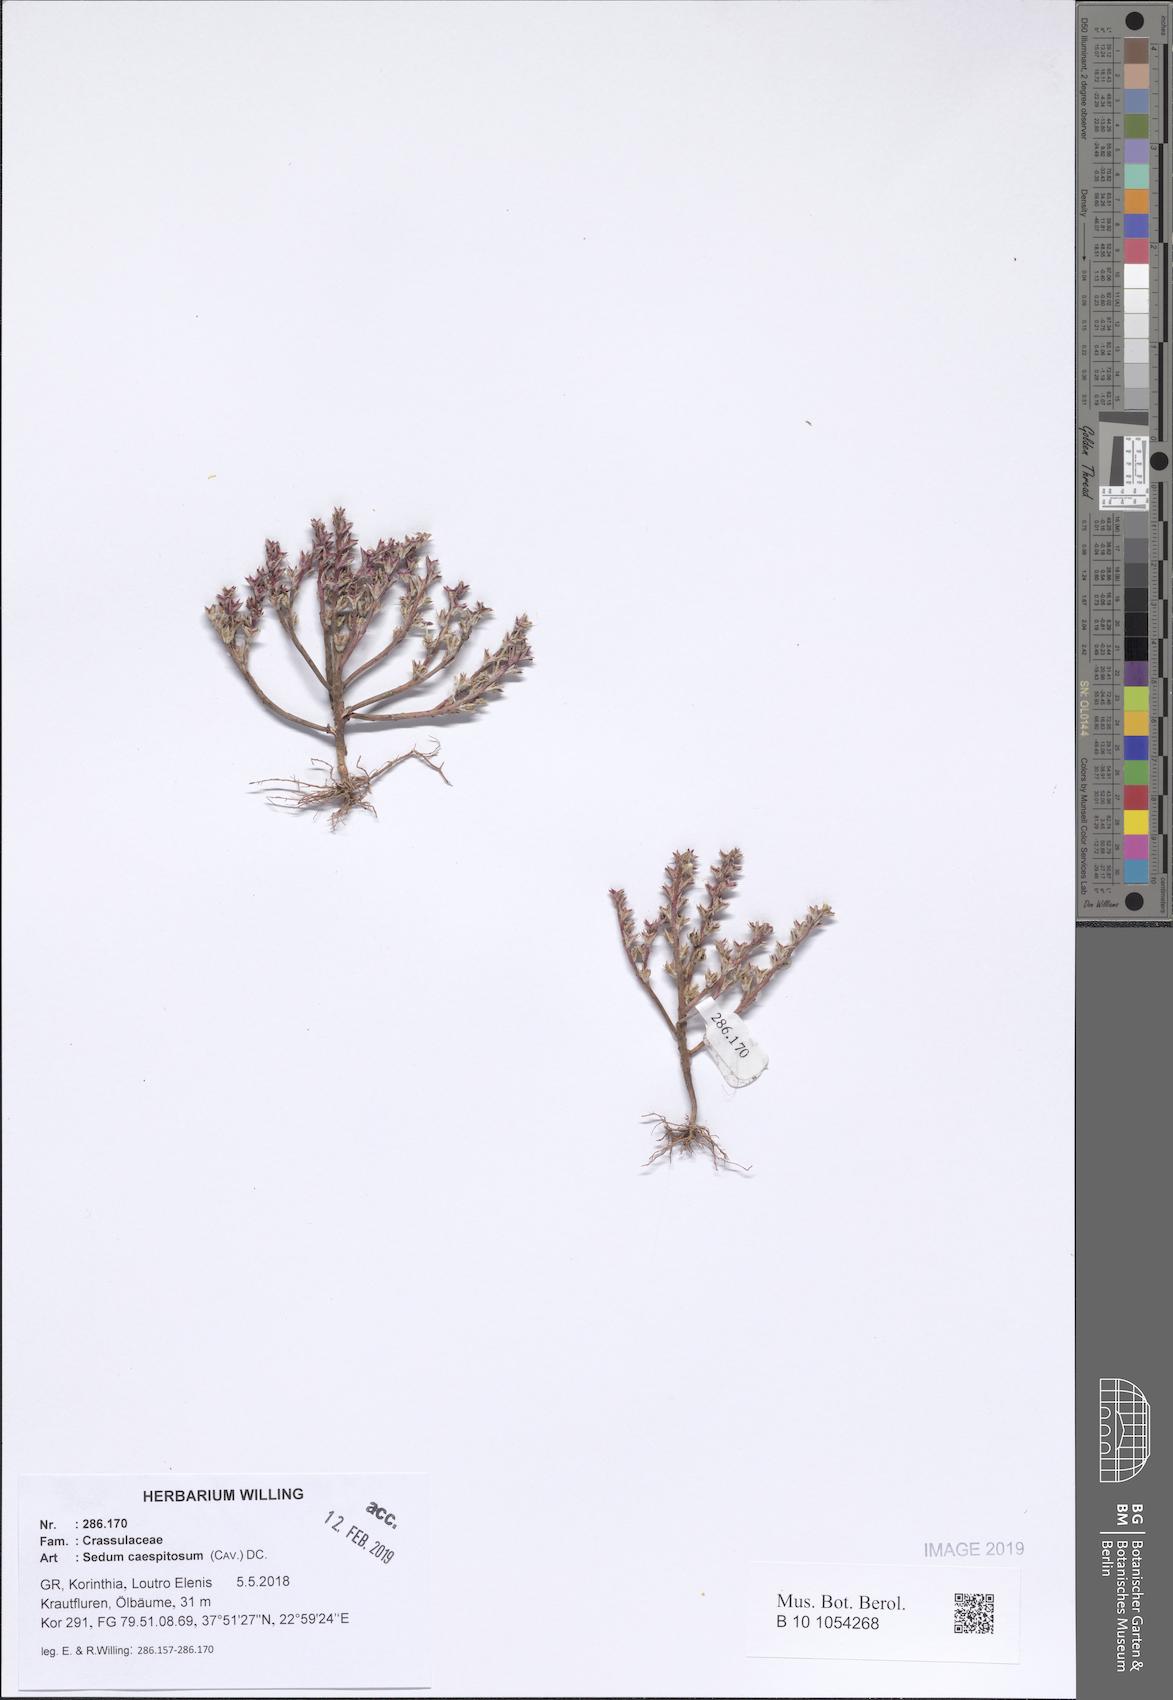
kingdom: Plantae
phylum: Tracheophyta
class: Magnoliopsida
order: Saxifragales
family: Crassulaceae
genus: Sedum
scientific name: Sedum cespitosum
